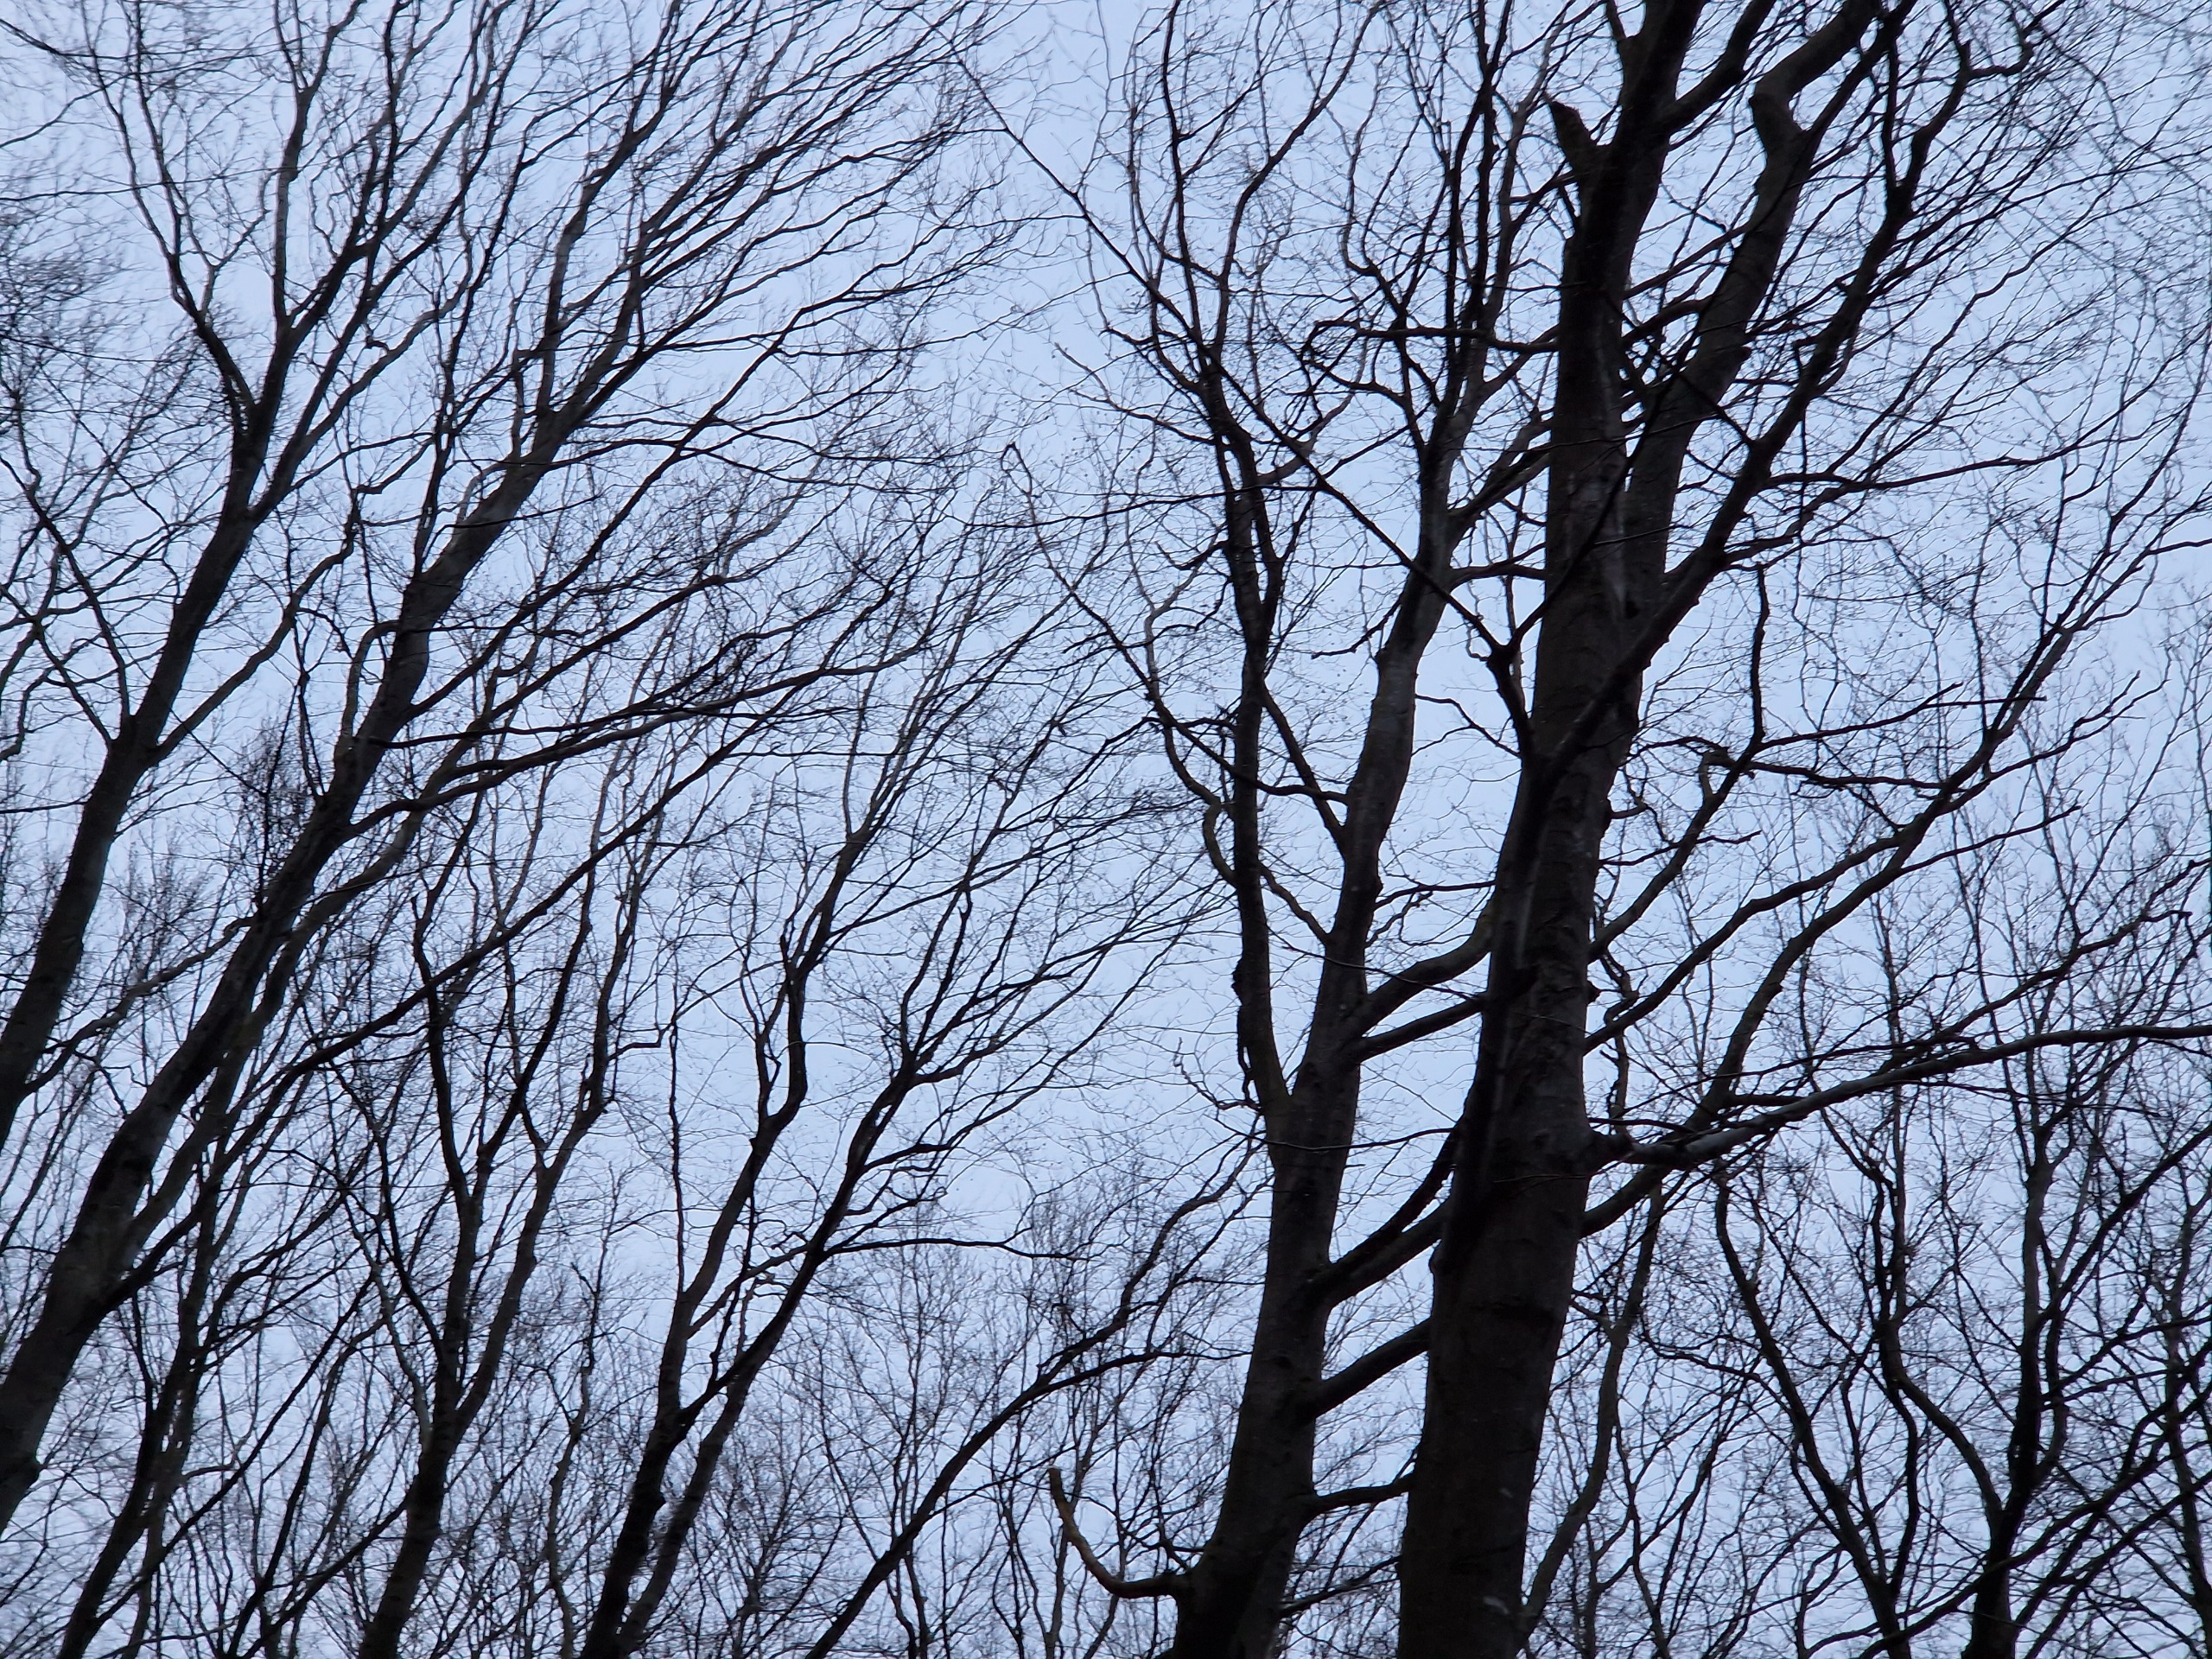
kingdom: Animalia
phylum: Chordata
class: Aves
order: Pelecaniformes
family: Ardeidae
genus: Ardea
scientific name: Ardea cinerea
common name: Fiskehejre
